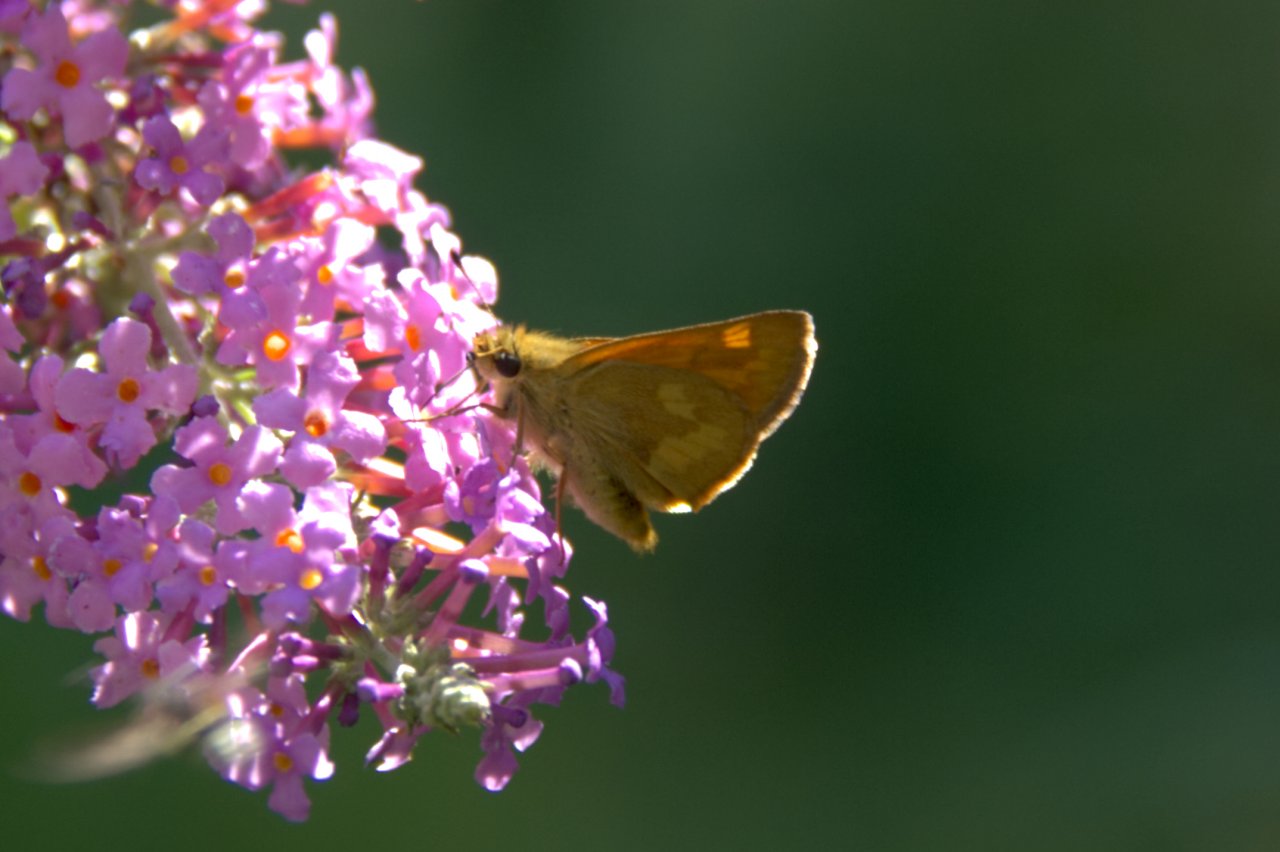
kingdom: Animalia
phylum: Arthropoda
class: Insecta
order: Lepidoptera
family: Hesperiidae
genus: Ochlodes
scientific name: Ochlodes sylvanoides
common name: Woodland Skipper
